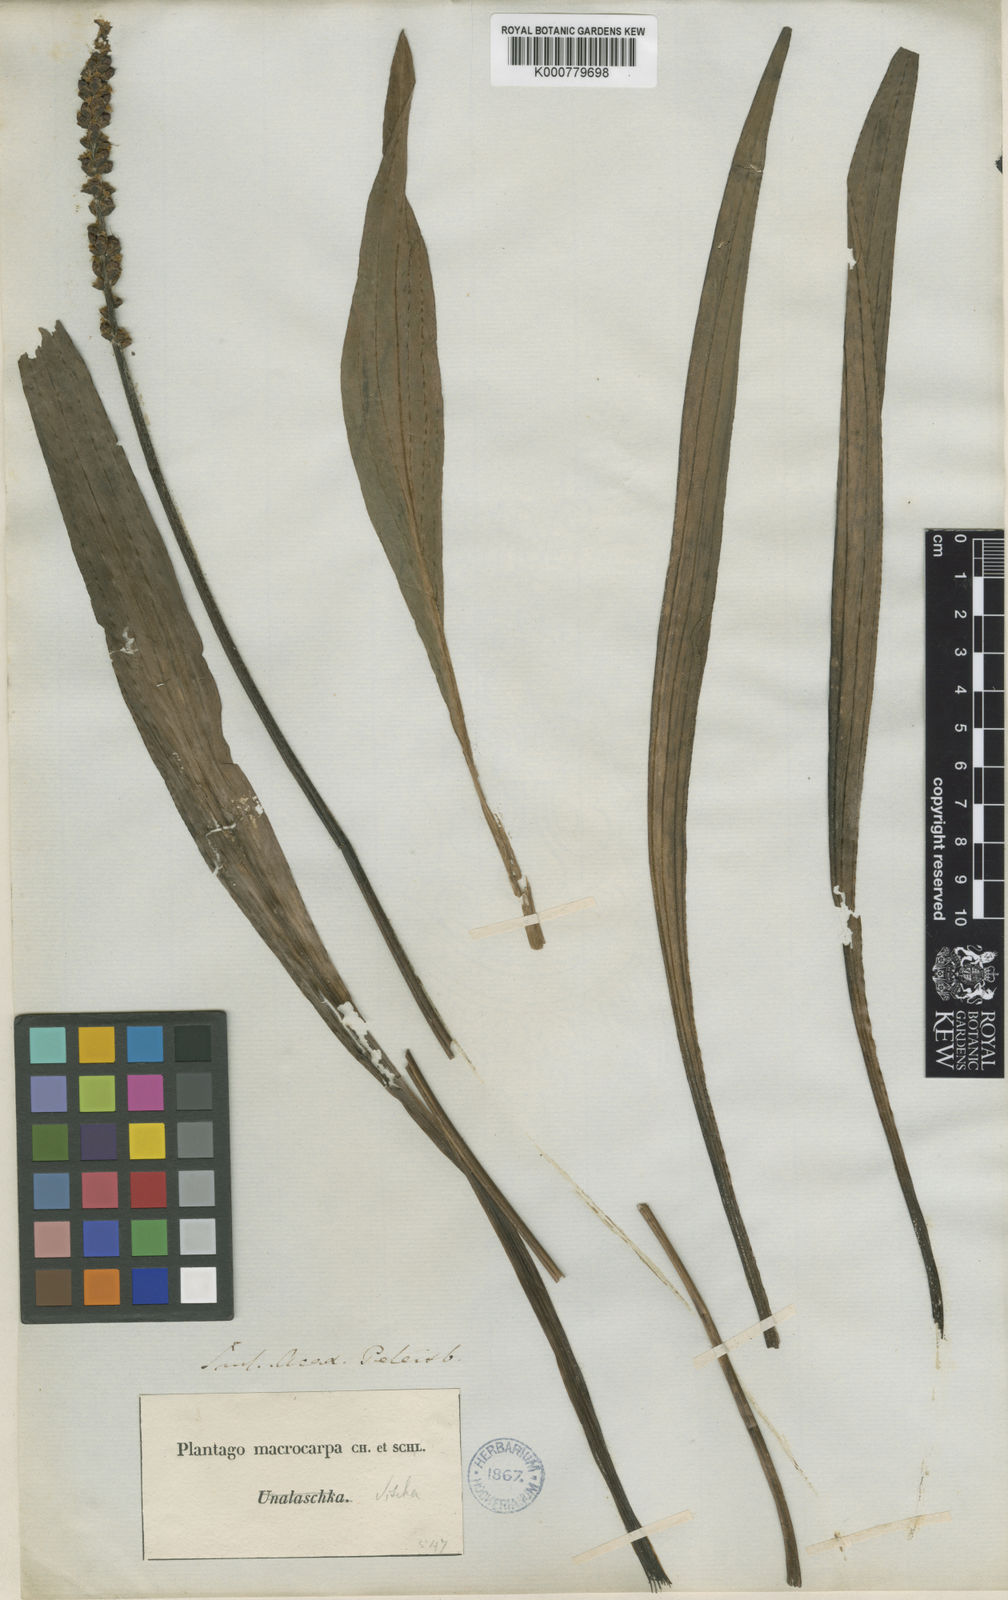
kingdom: Plantae
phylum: Tracheophyta
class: Magnoliopsida
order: Lamiales
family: Plantaginaceae
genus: Plantago
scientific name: Plantago macrocarpa
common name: Alaska plantain
